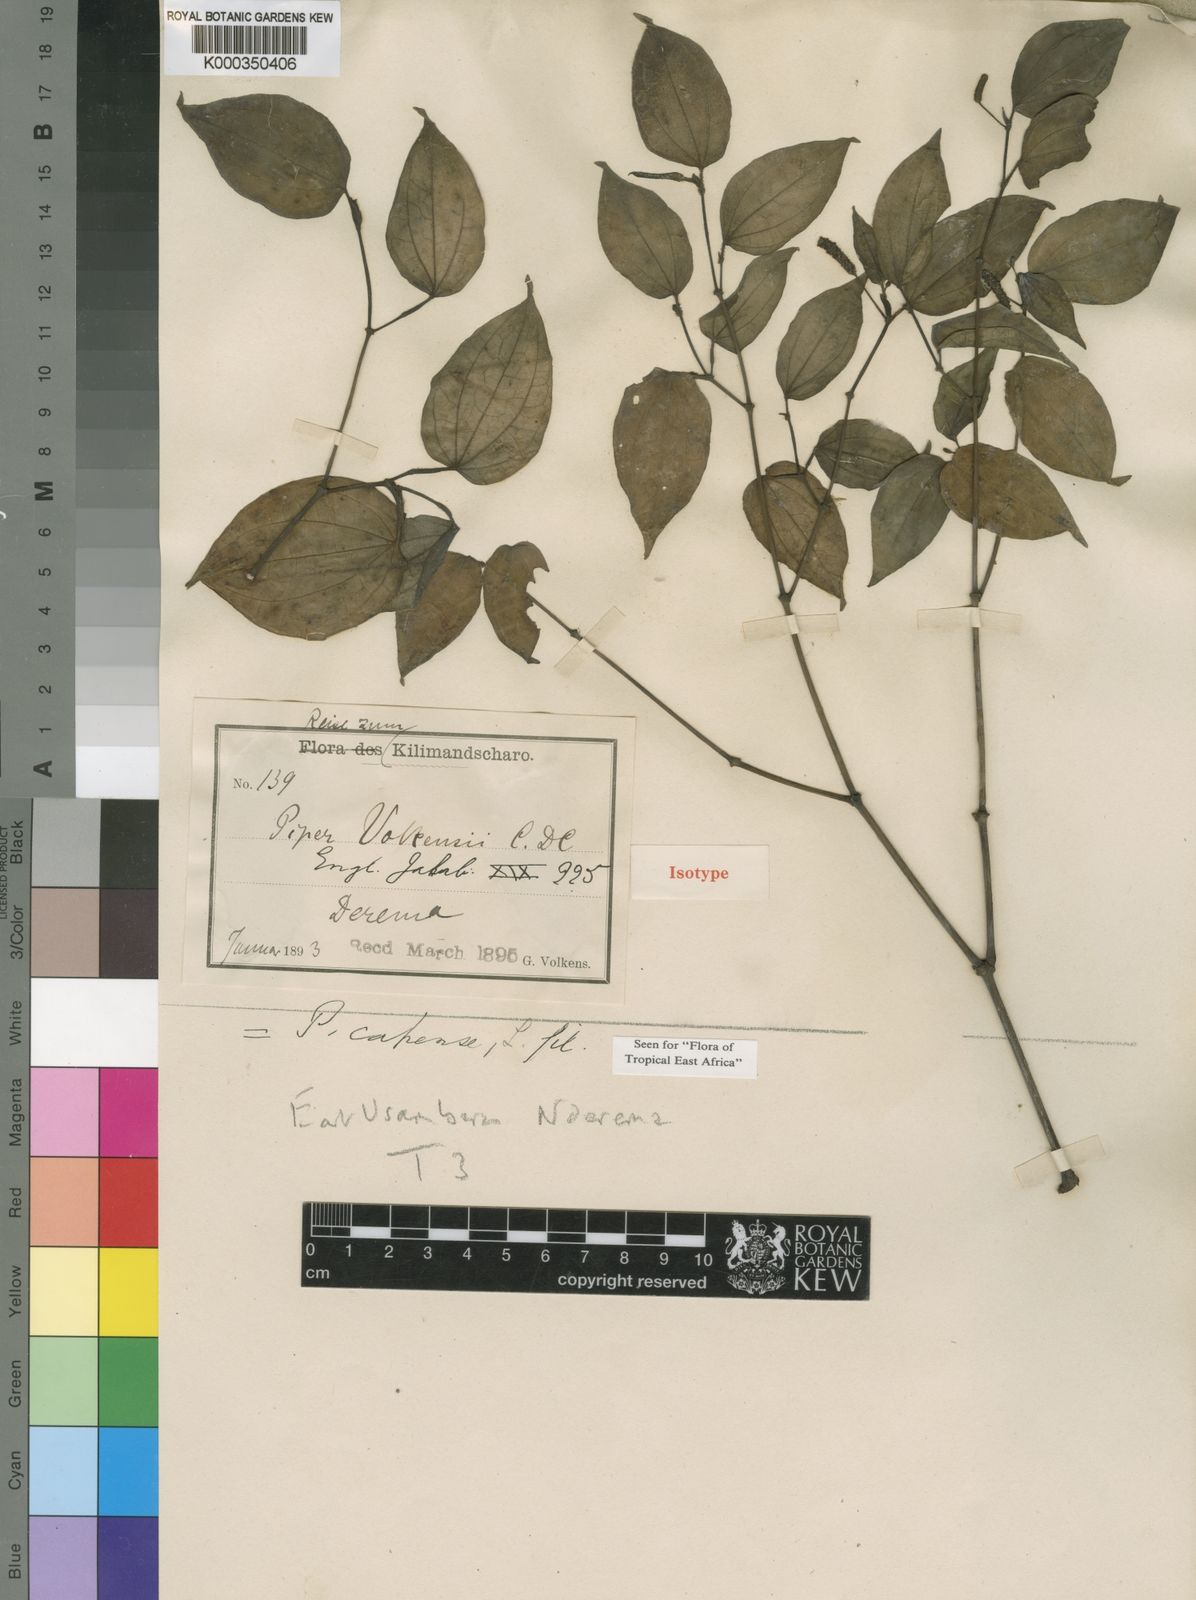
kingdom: Plantae
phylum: Tracheophyta
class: Magnoliopsida
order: Piperales
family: Piperaceae
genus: Piper
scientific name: Piper capense
